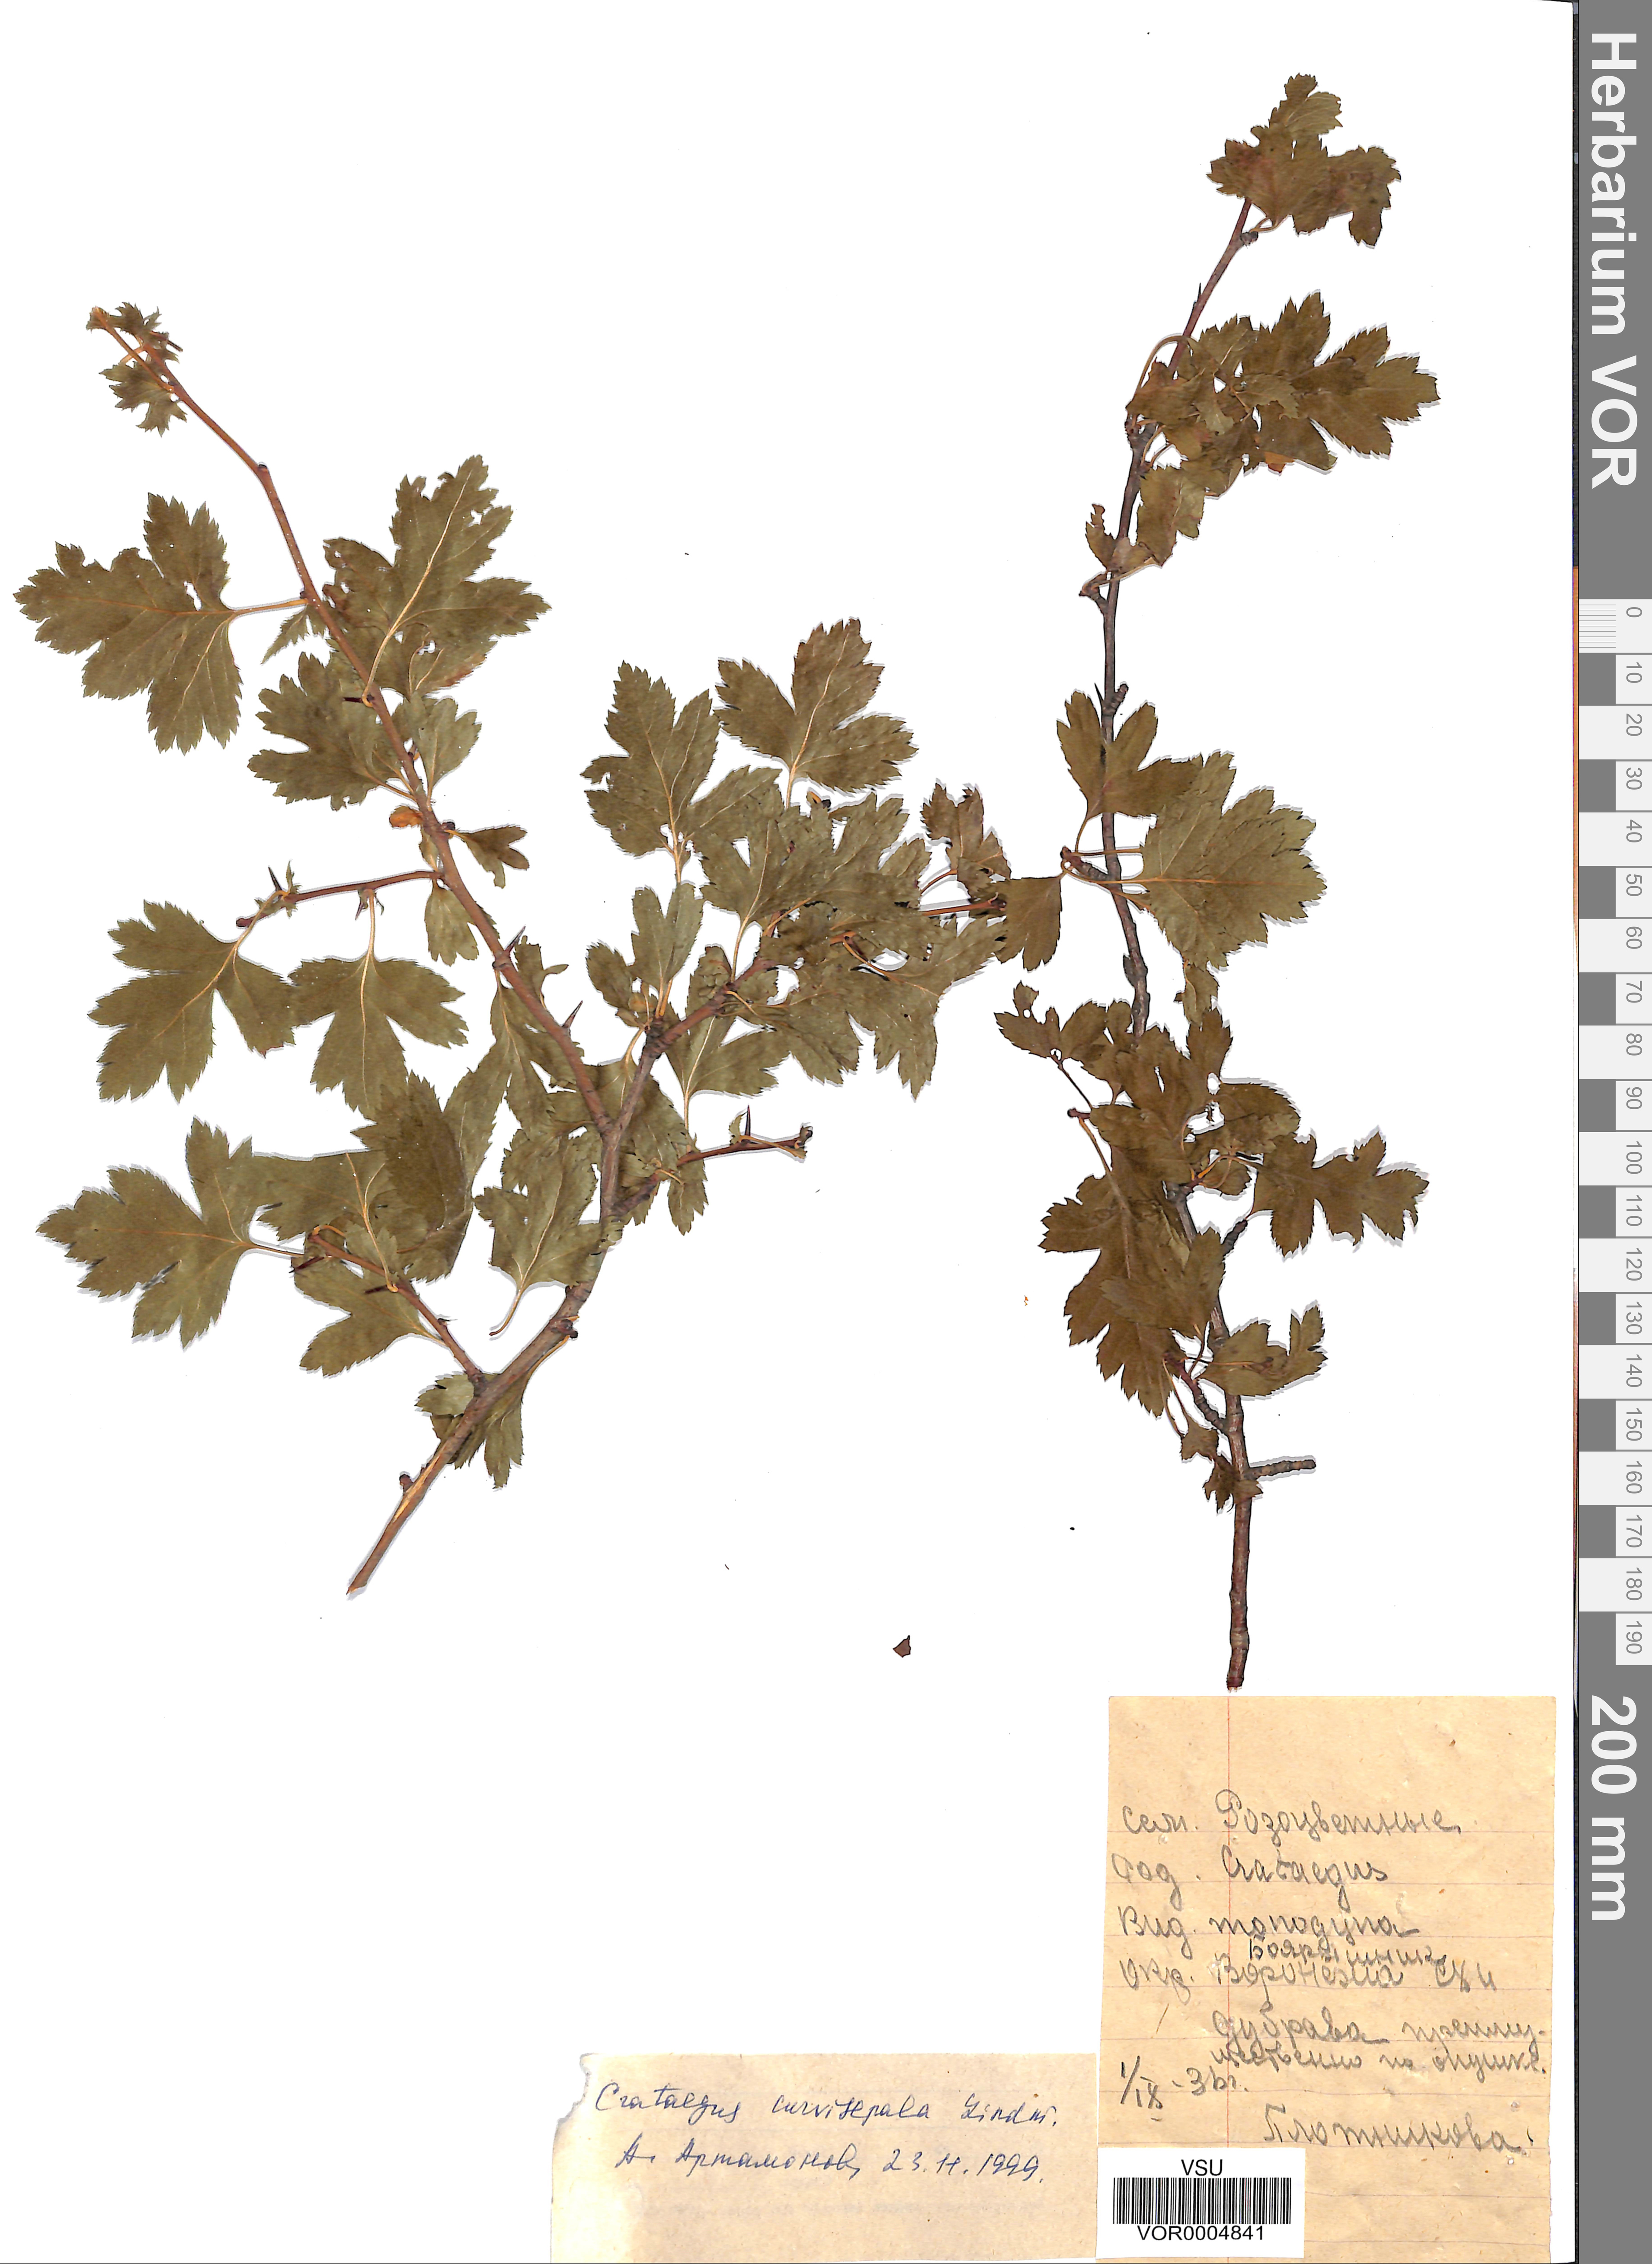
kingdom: Plantae
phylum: Tracheophyta
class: Magnoliopsida
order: Rosales
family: Rosaceae
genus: Crataegus
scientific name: Crataegus praemonticola
